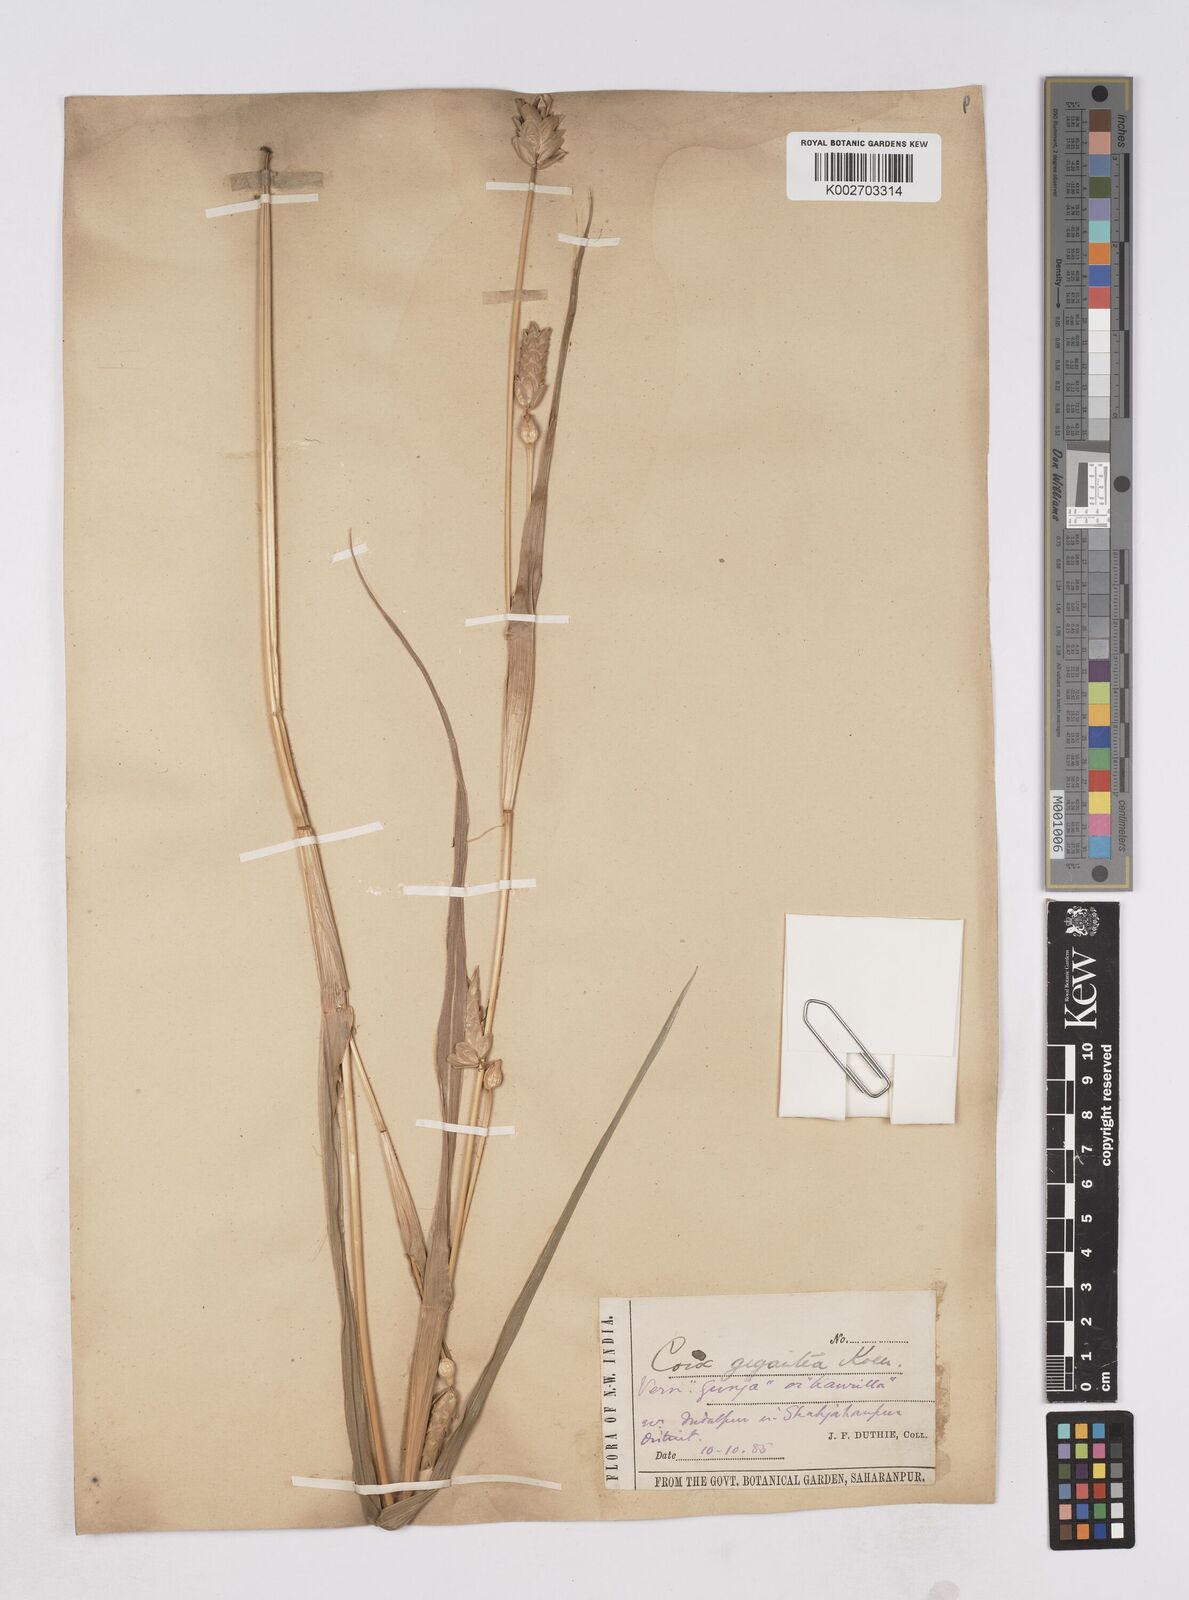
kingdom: Plantae
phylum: Tracheophyta
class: Liliopsida
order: Poales
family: Poaceae
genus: Coix
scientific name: Coix aquatica
